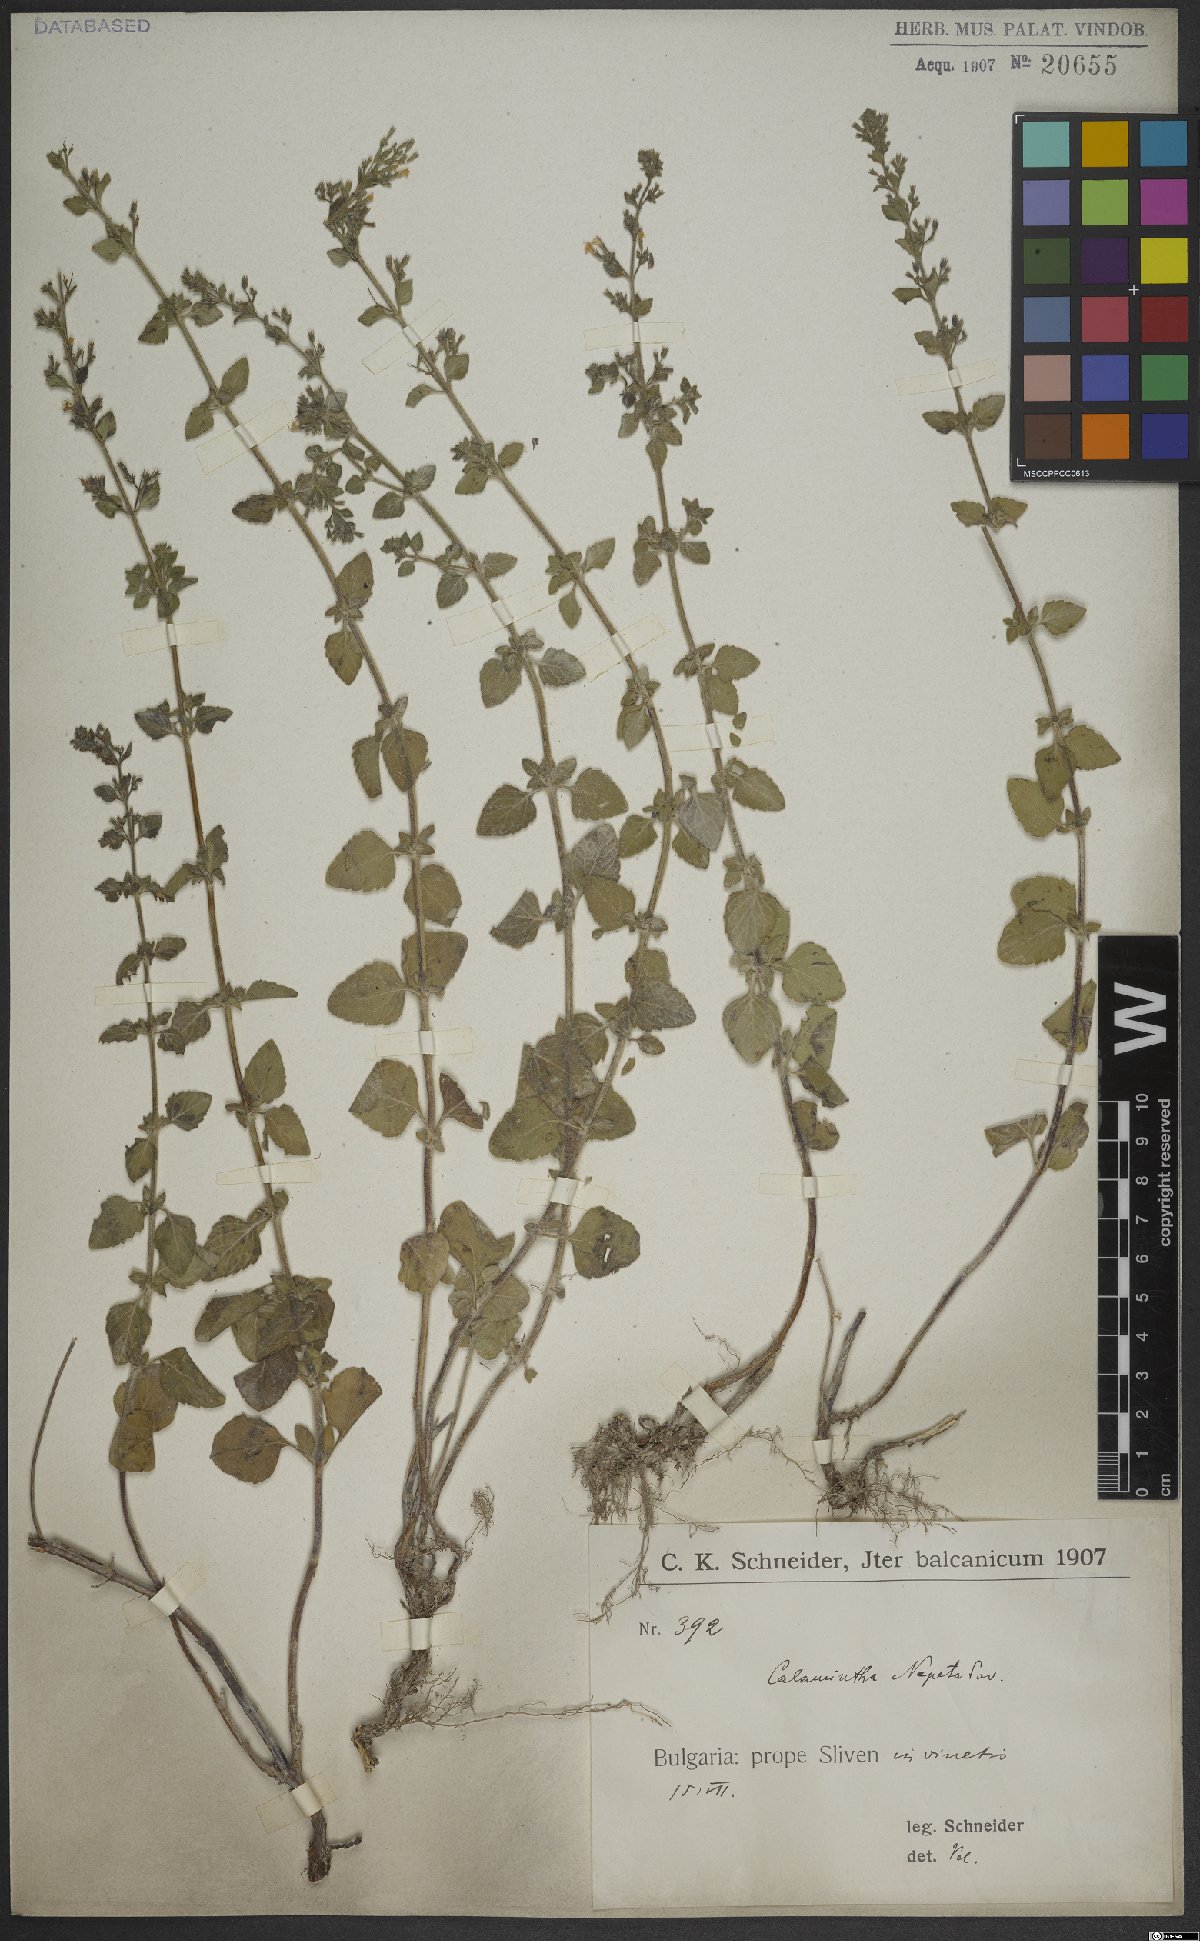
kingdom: Plantae
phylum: Tracheophyta
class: Magnoliopsida
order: Lamiales
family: Lamiaceae
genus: Clinopodium
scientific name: Clinopodium nepeta
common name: Lesser calamint
